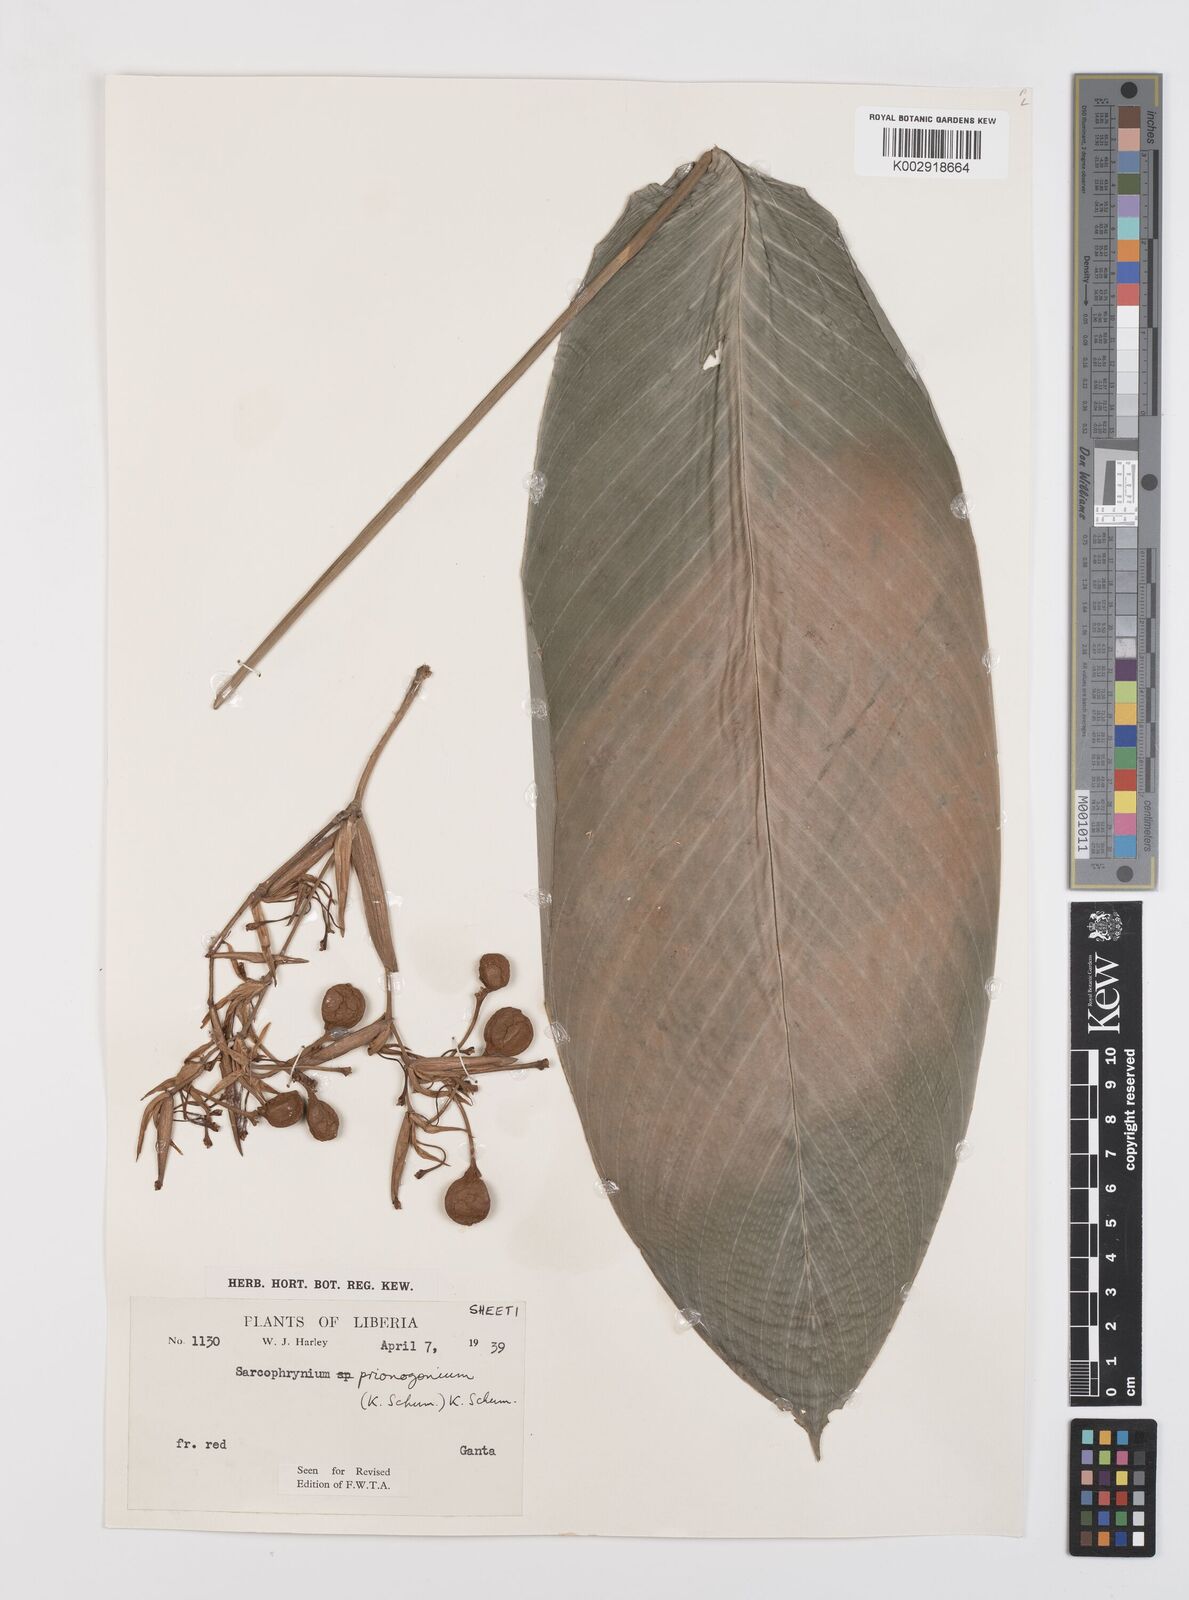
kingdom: Plantae
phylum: Tracheophyta
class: Liliopsida
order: Zingiberales
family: Marantaceae
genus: Sarcophrynium
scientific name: Sarcophrynium prionogonium
